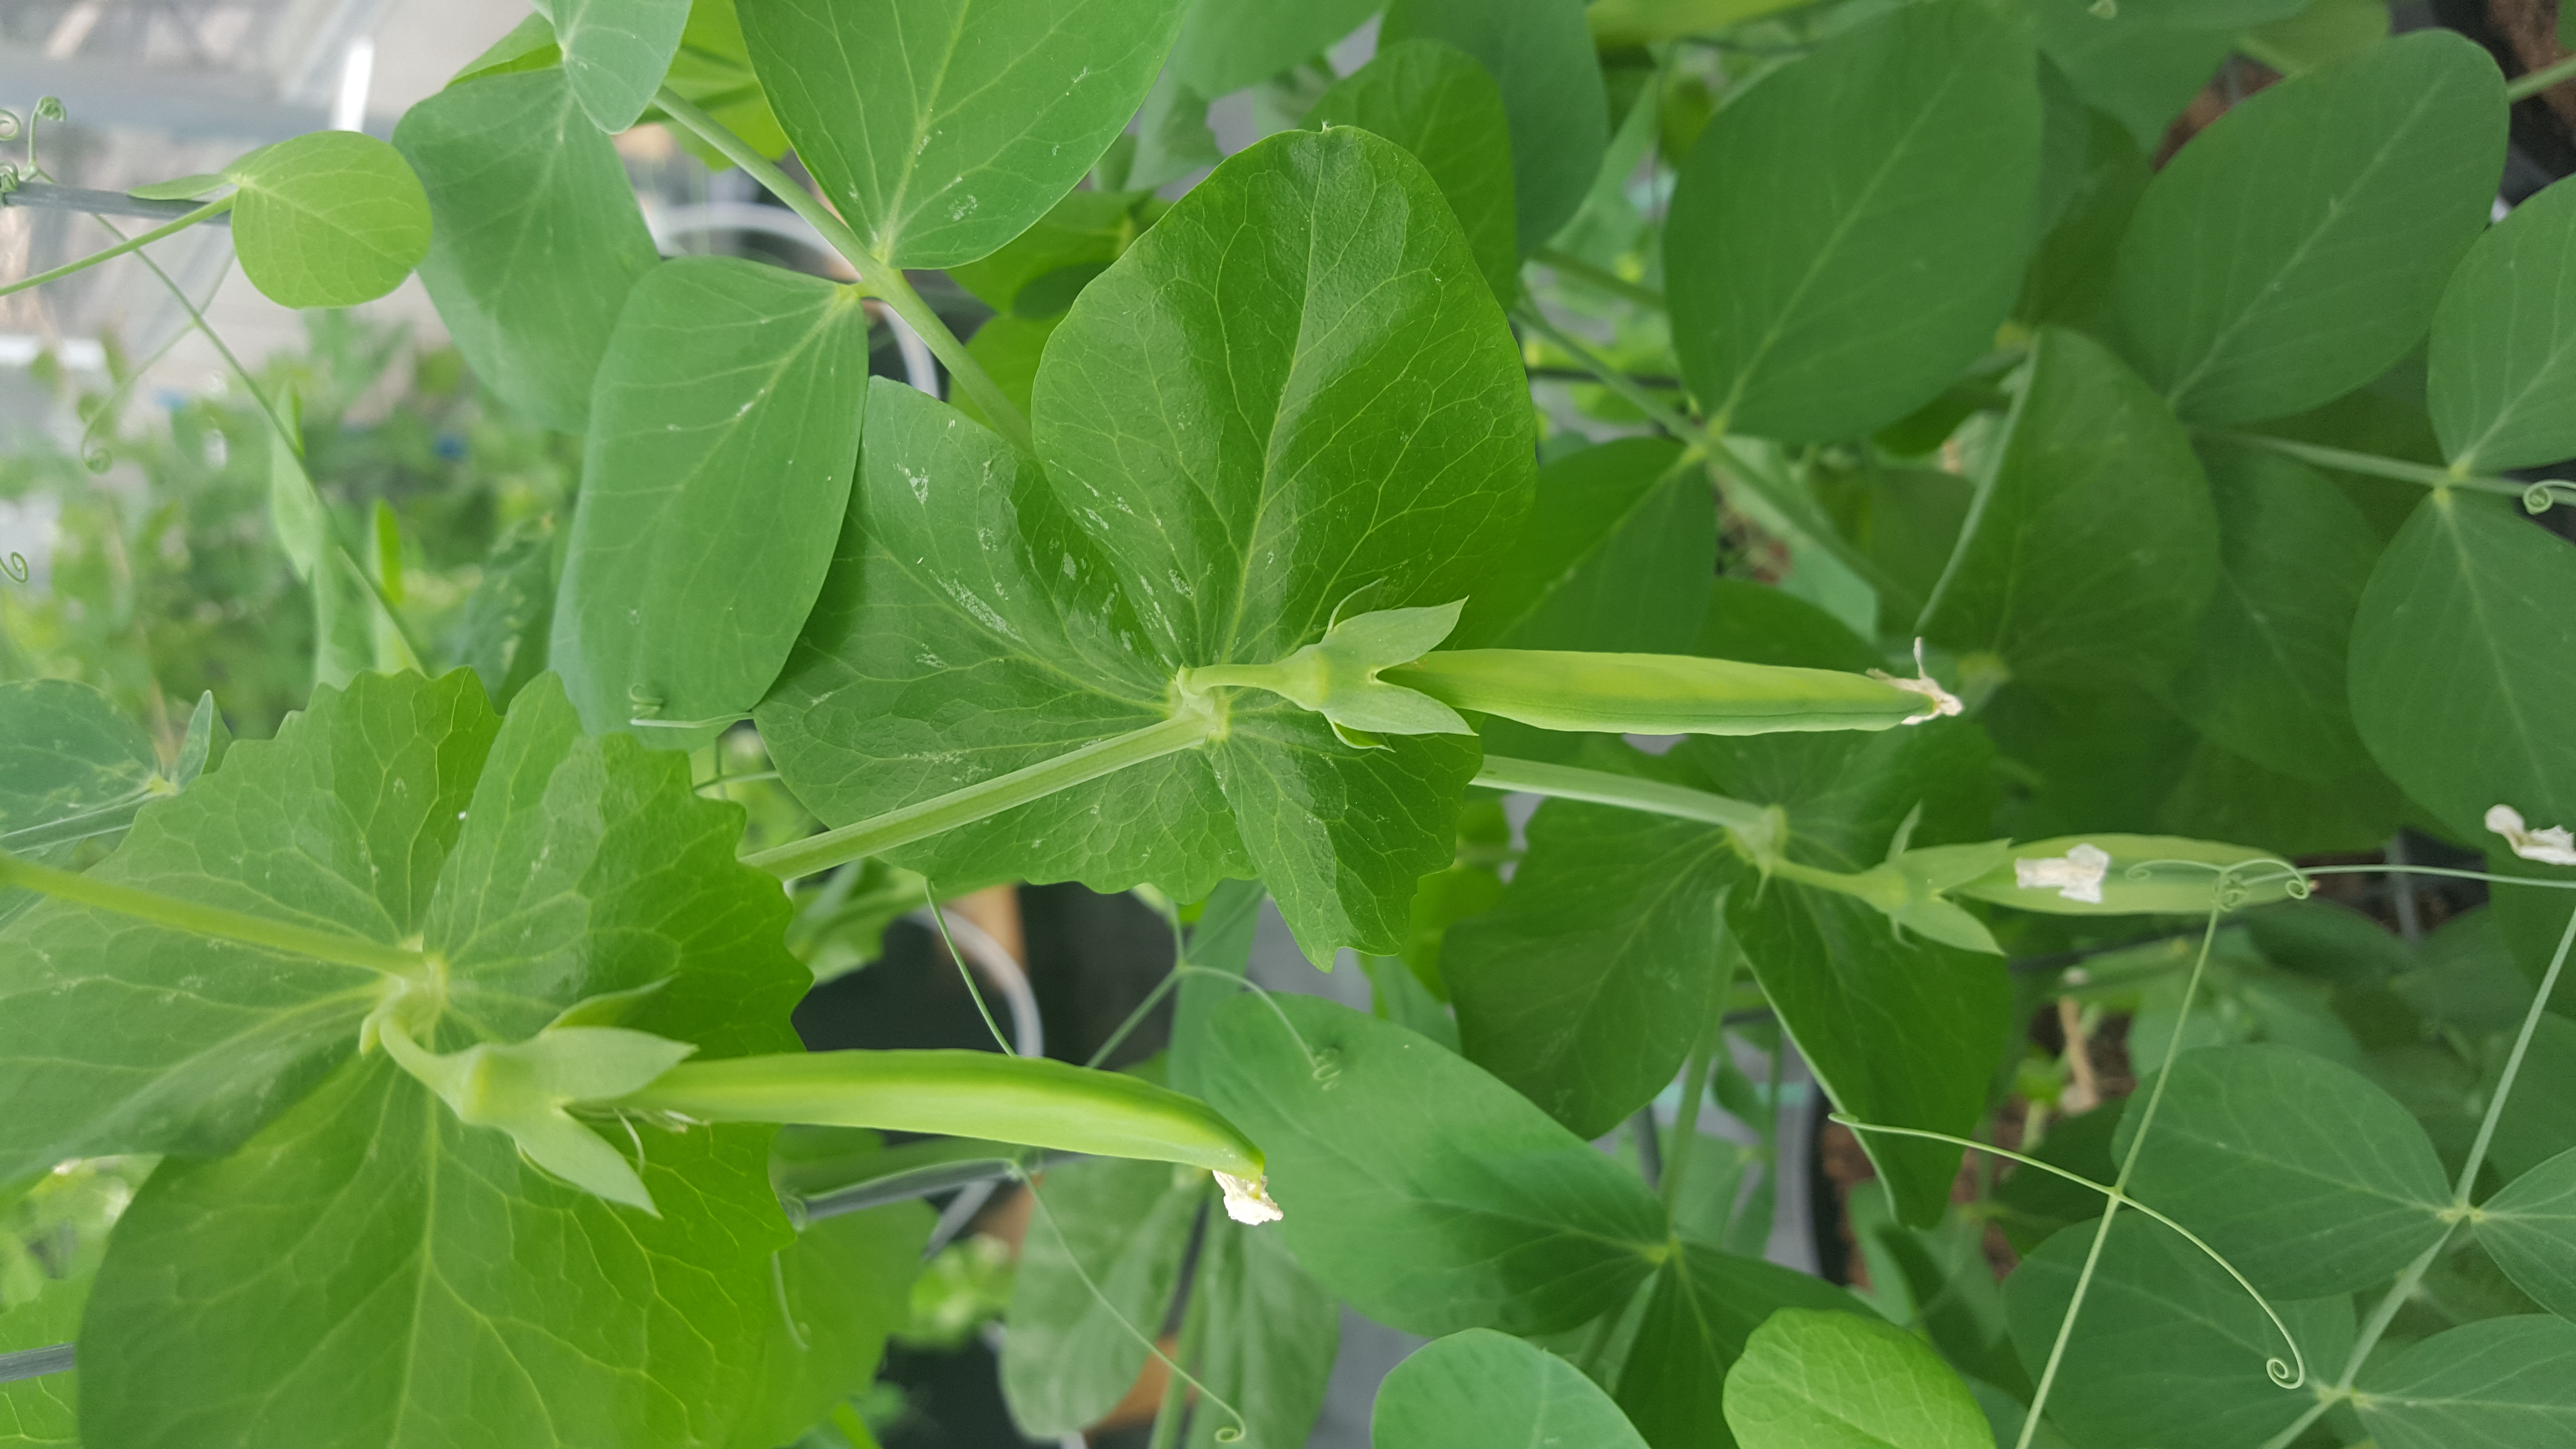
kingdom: Plantae
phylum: Tracheophyta
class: Magnoliopsida
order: Fabales
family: Fabaceae
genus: Lathyrus
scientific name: Lathyrus oleraceus
